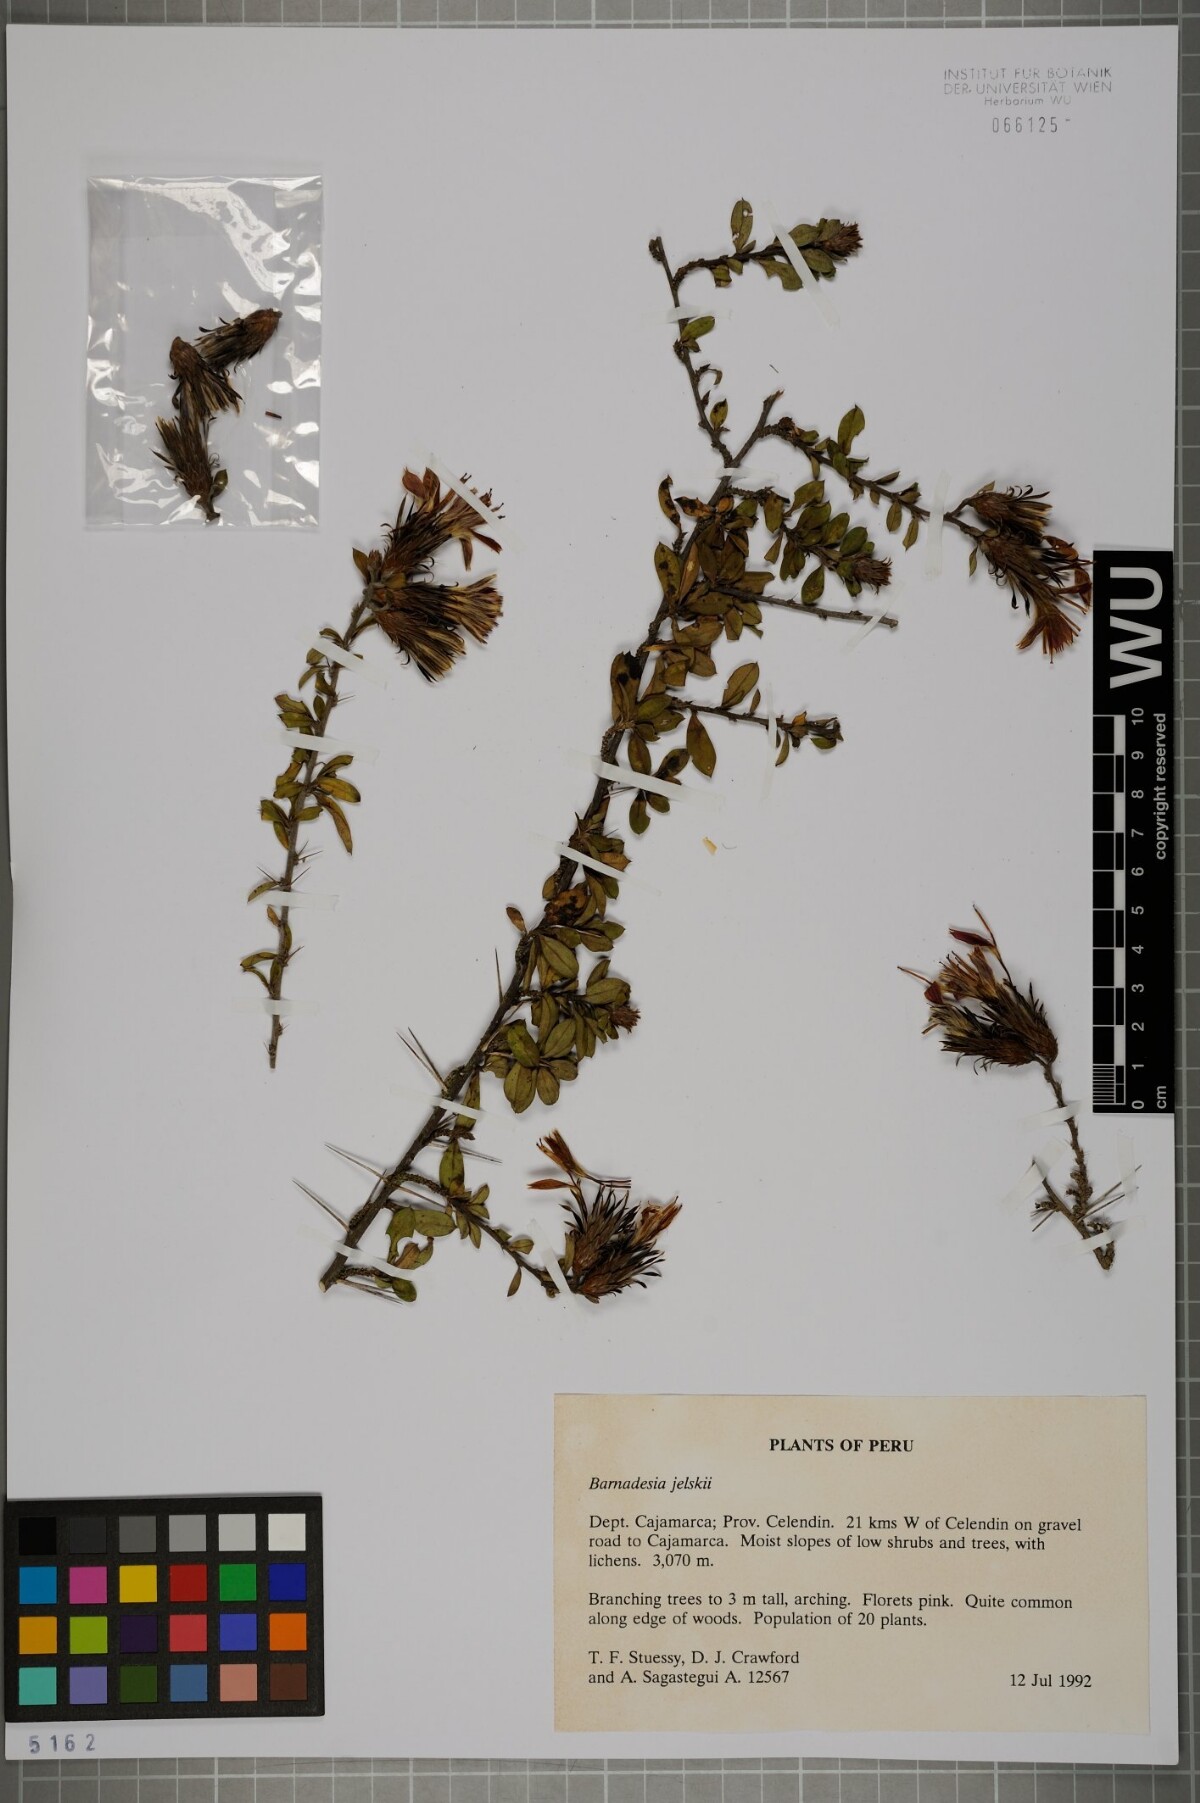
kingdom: Plantae
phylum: Tracheophyta
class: Magnoliopsida
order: Asterales
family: Asteraceae
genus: Barnadesia
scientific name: Barnadesia jelskii
